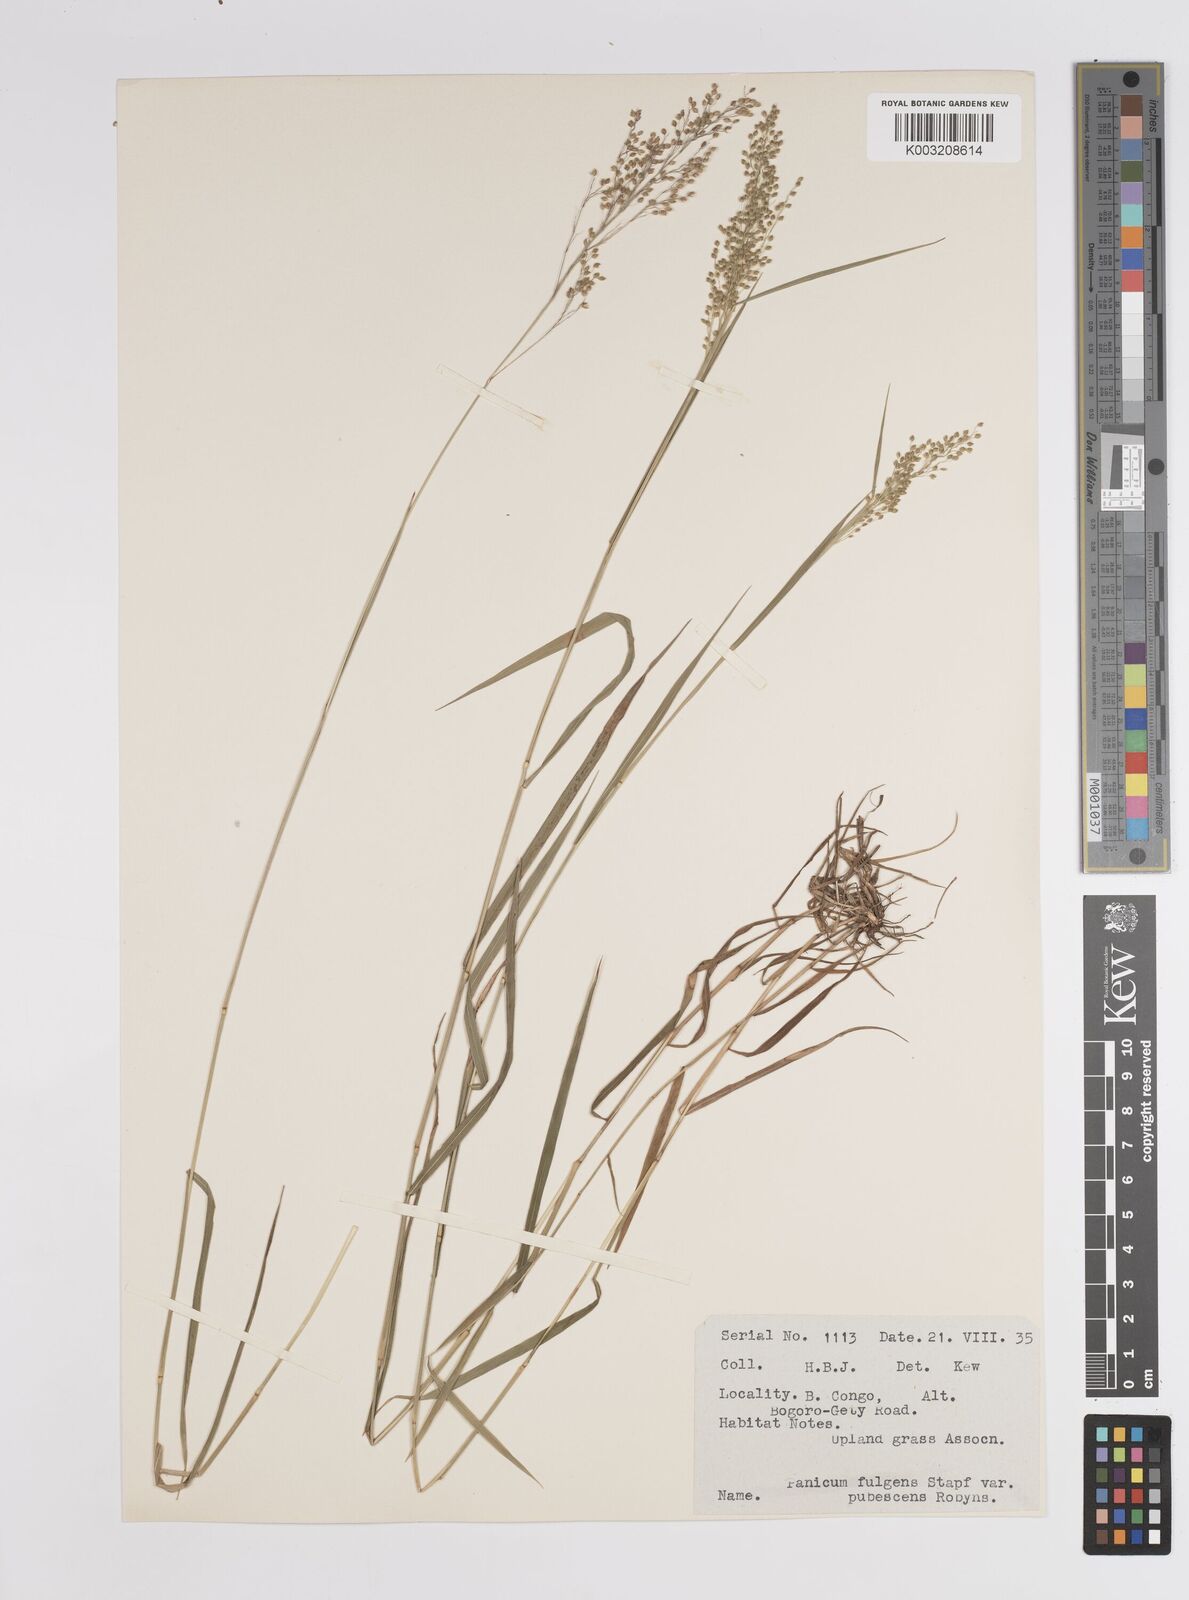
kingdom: Plantae
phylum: Tracheophyta
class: Liliopsida
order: Poales
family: Poaceae
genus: Trichanthecium
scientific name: Trichanthecium nervatum
